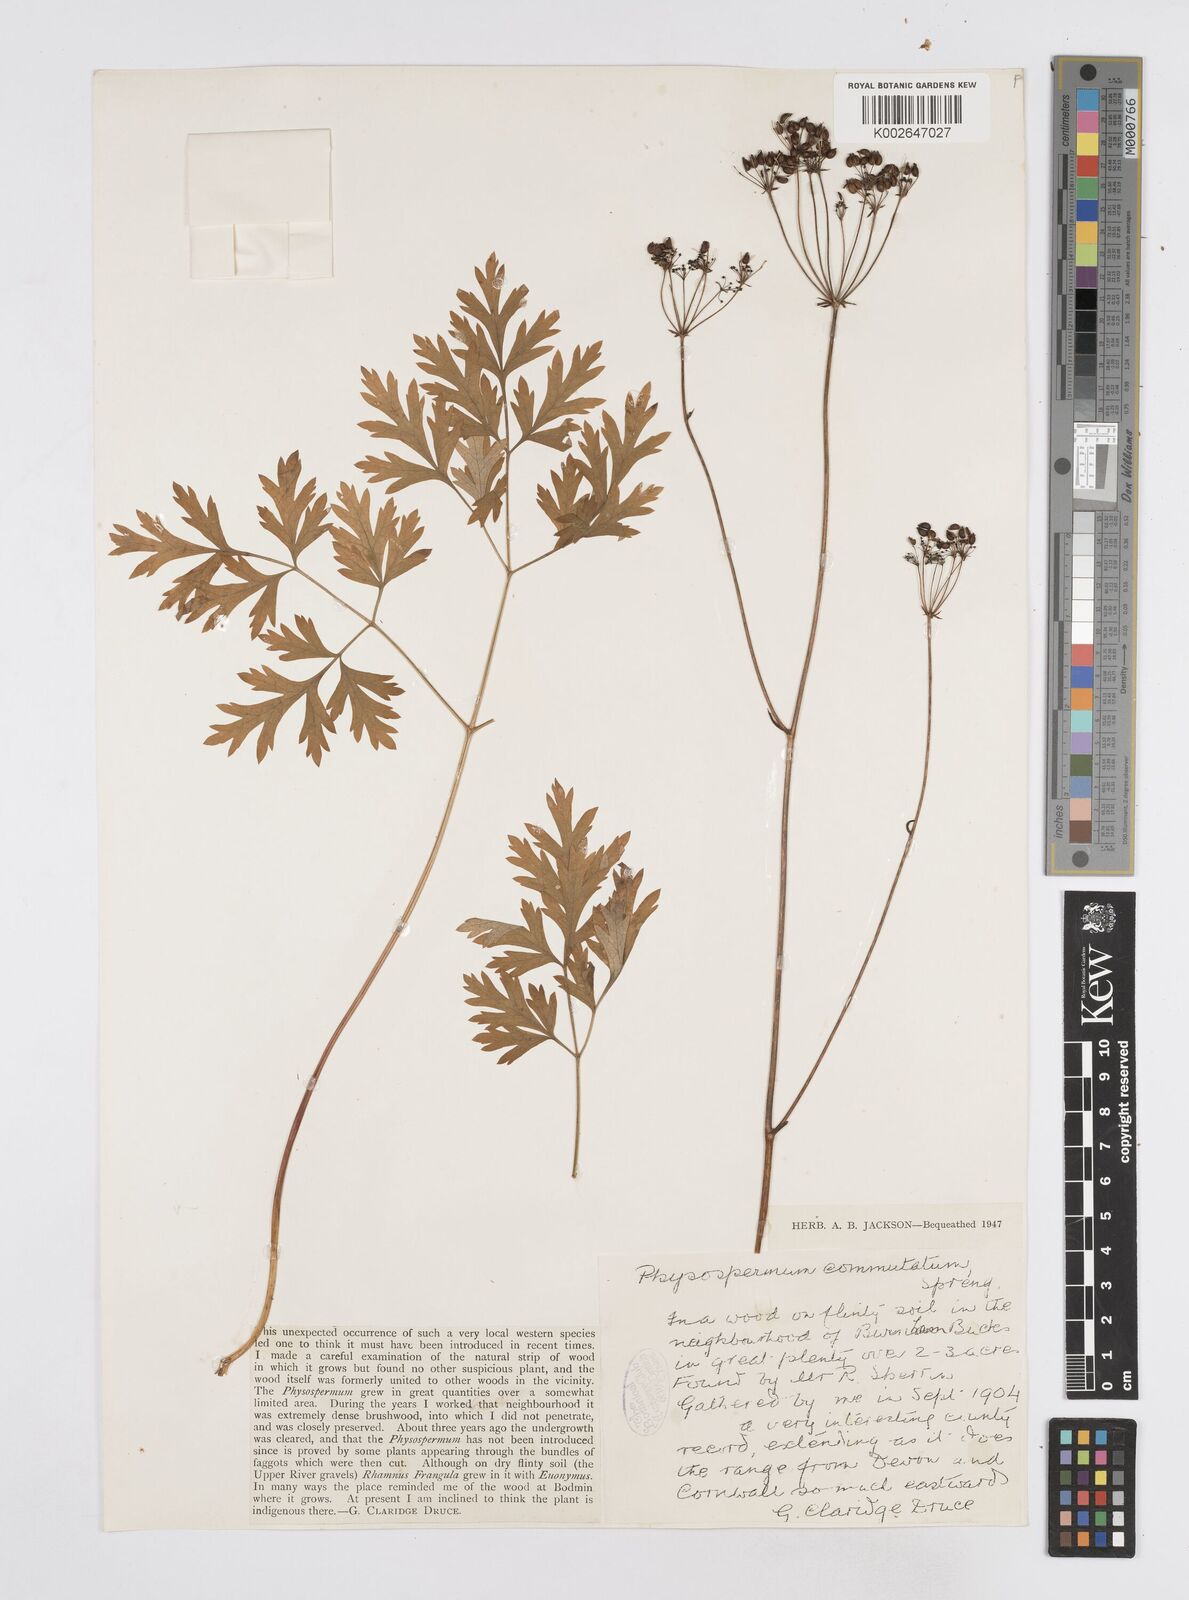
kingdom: Plantae
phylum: Tracheophyta
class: Magnoliopsida
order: Apiales
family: Apiaceae
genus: Physospermum
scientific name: Physospermum cornubiense
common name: Bladderseed
